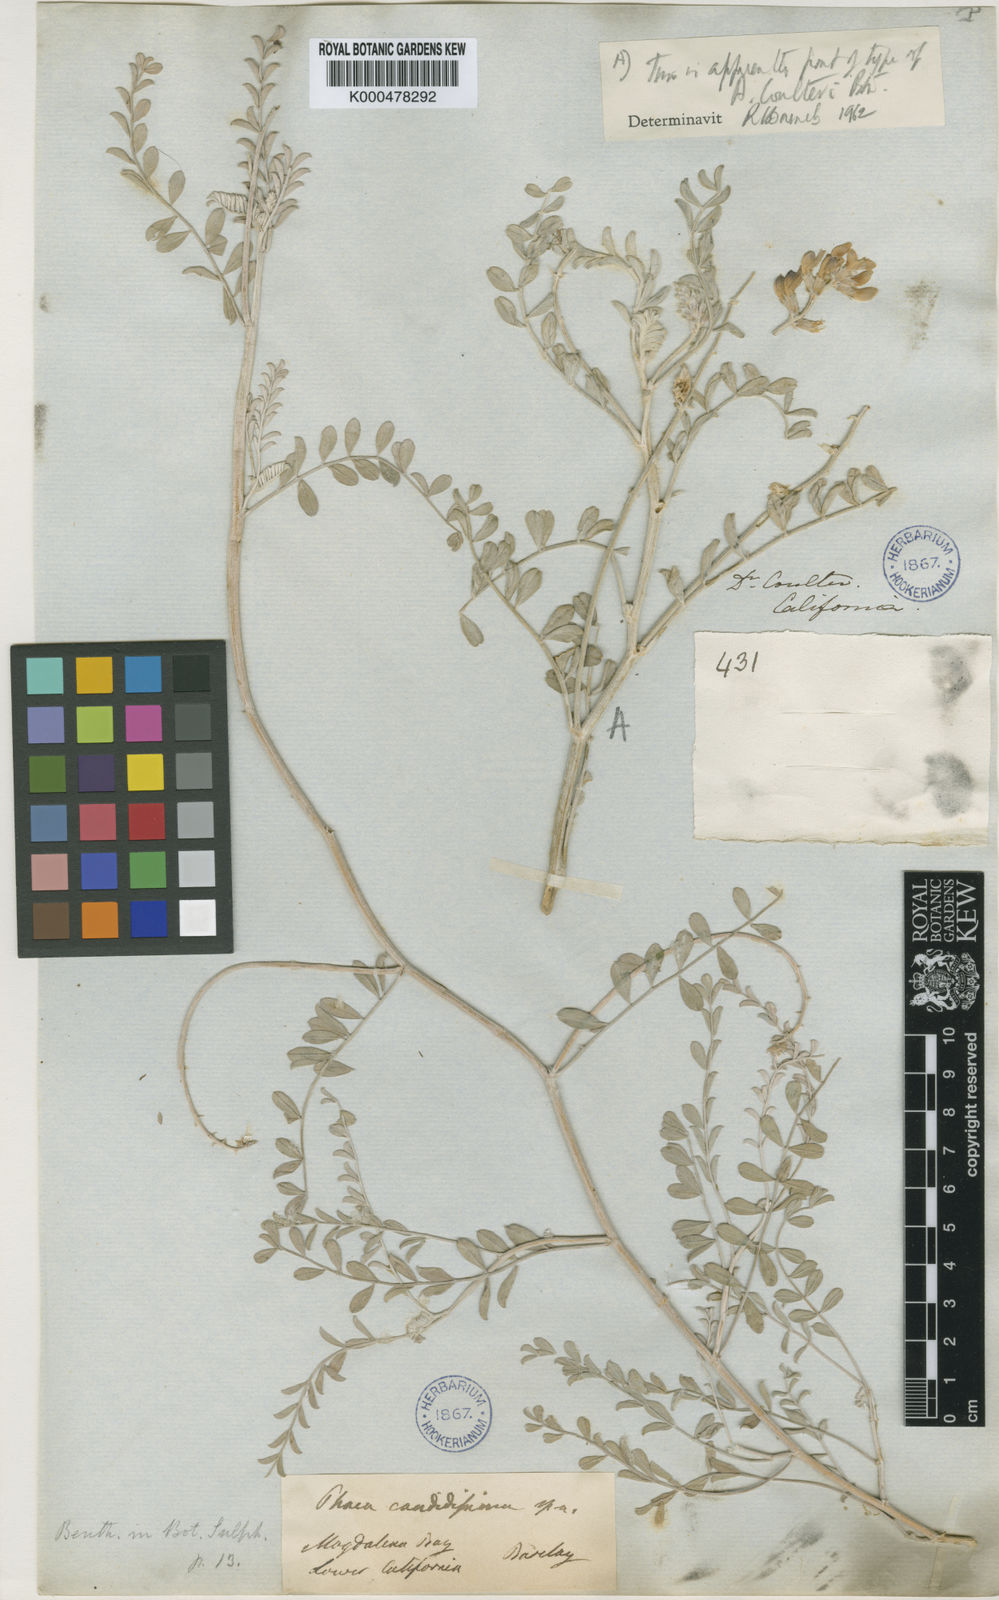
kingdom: Plantae
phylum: Tracheophyta
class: Magnoliopsida
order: Fabales
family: Fabaceae
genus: Astragalus
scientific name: Astragalus magdalenae
